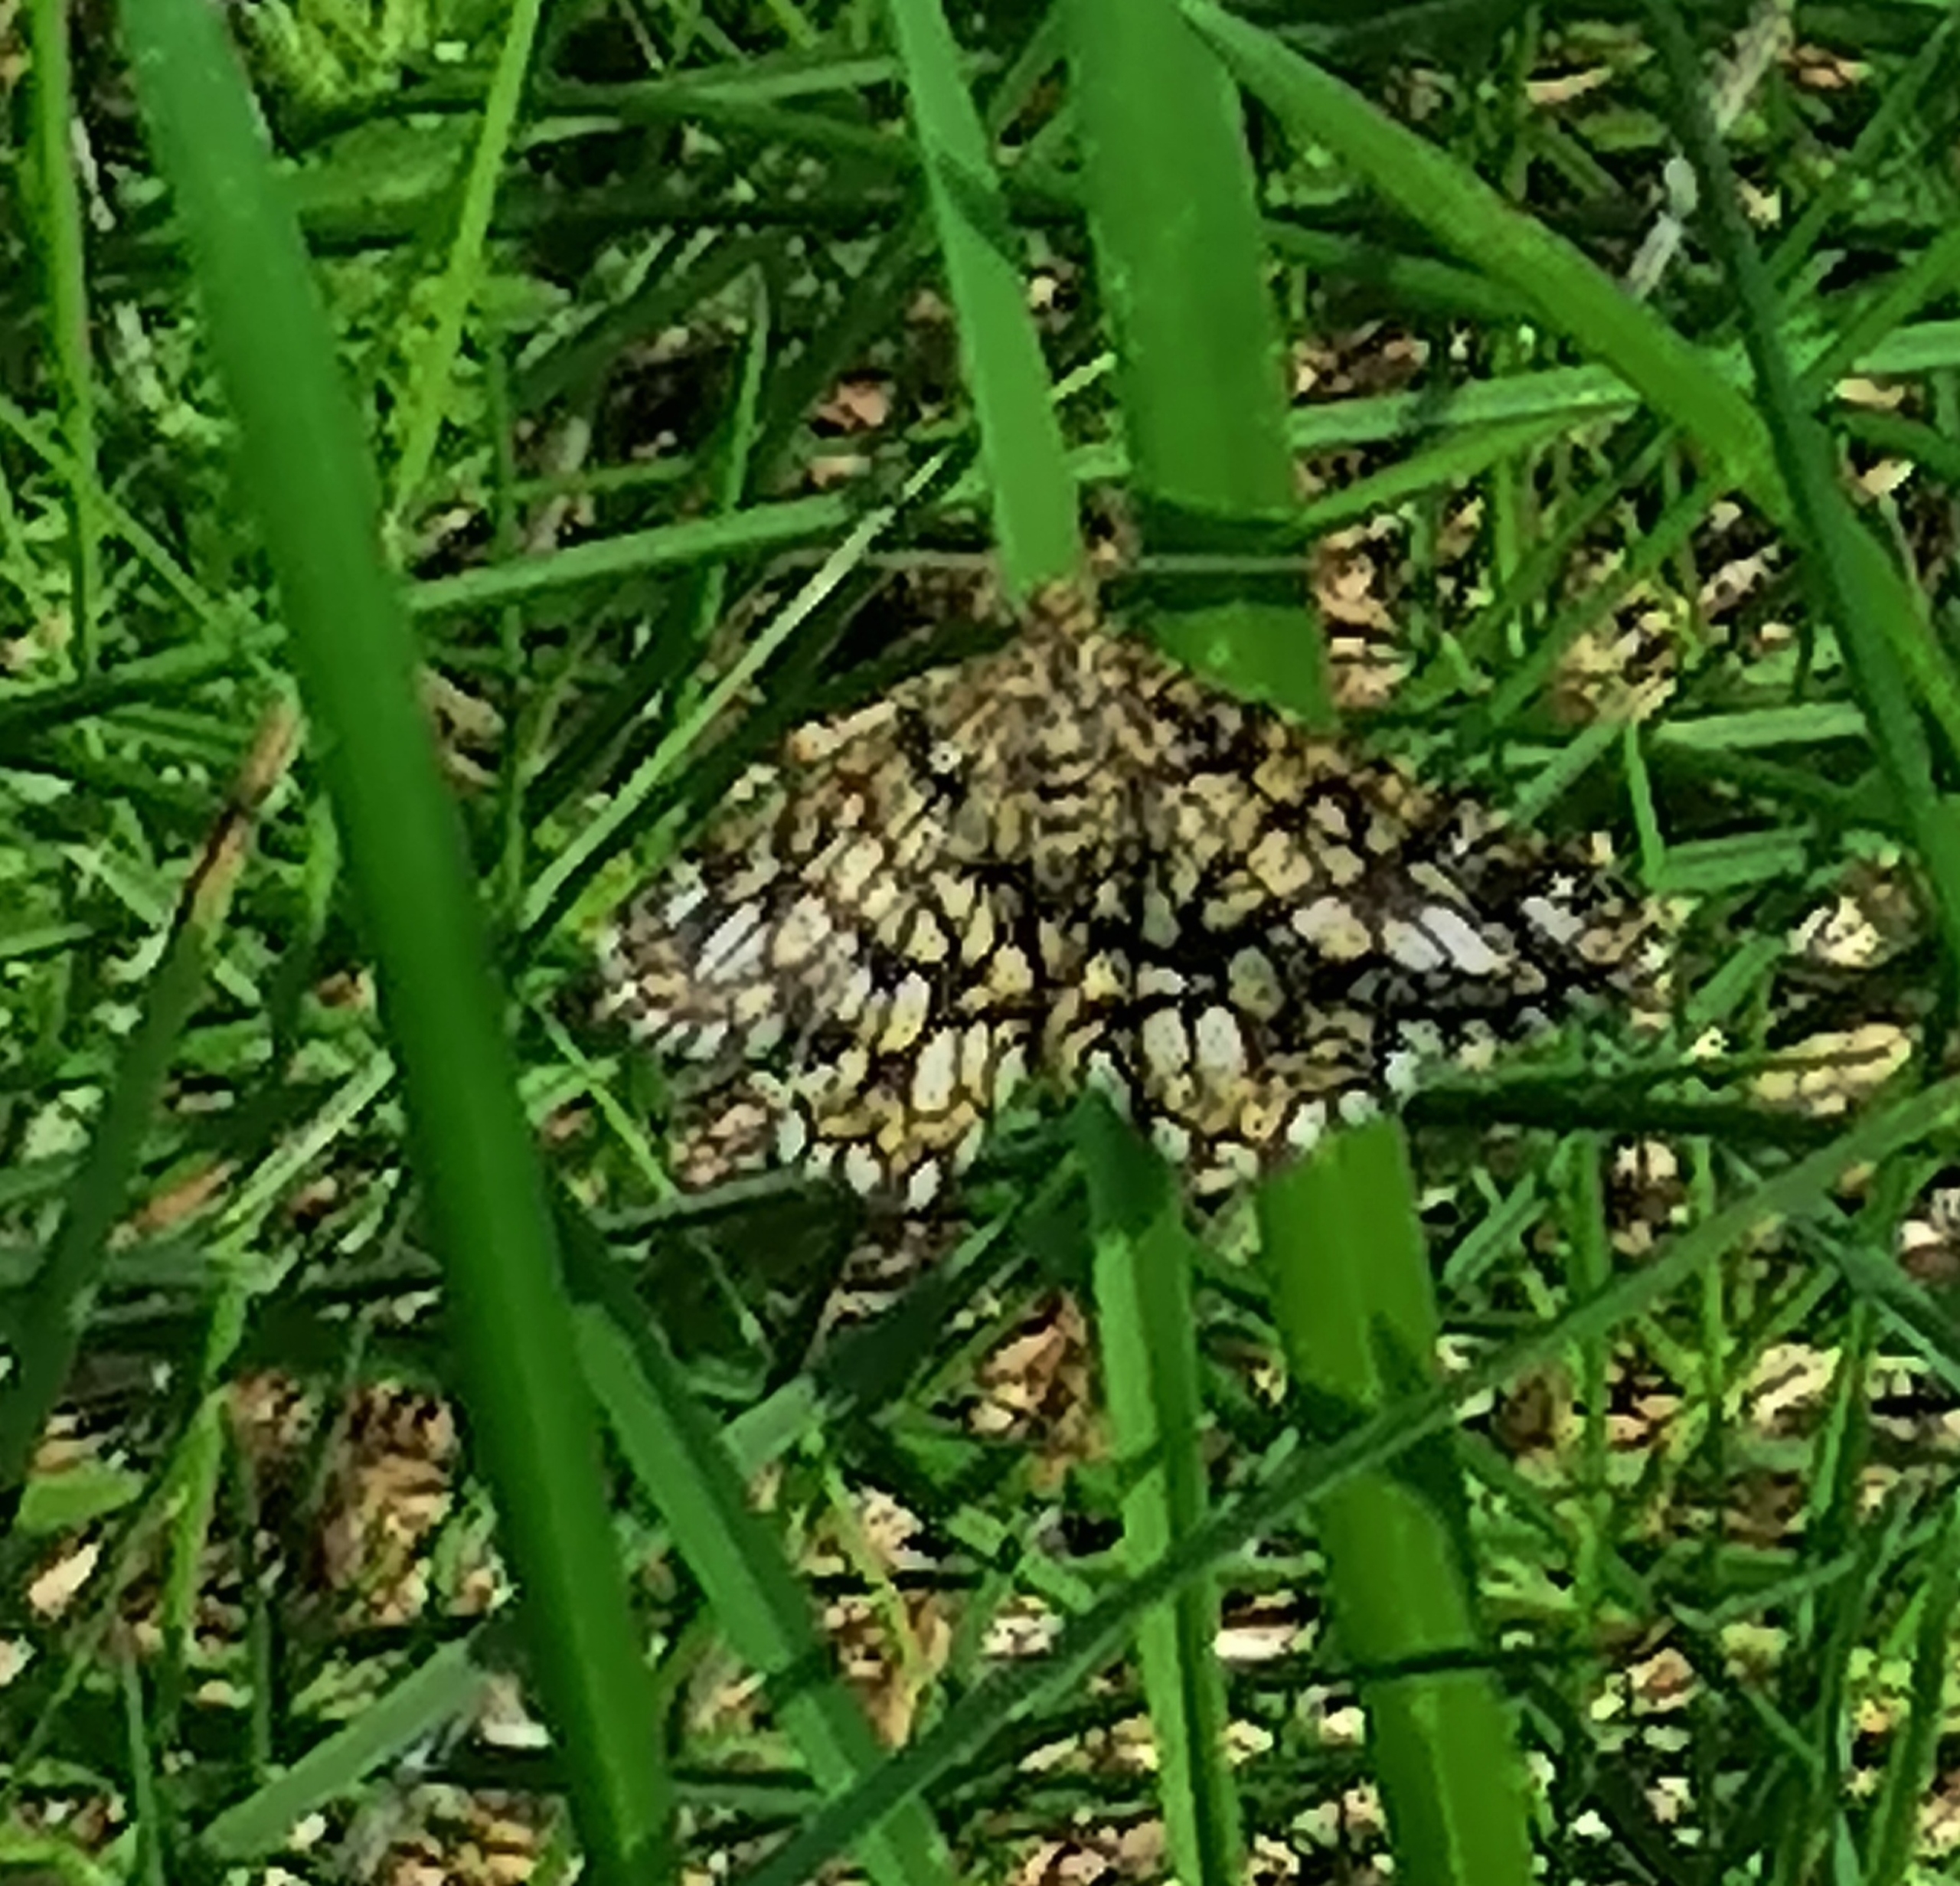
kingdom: Animalia
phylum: Arthropoda
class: Insecta
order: Lepidoptera
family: Geometridae
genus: Chiasmia
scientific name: Chiasmia clathrata
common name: Kløvermåler
